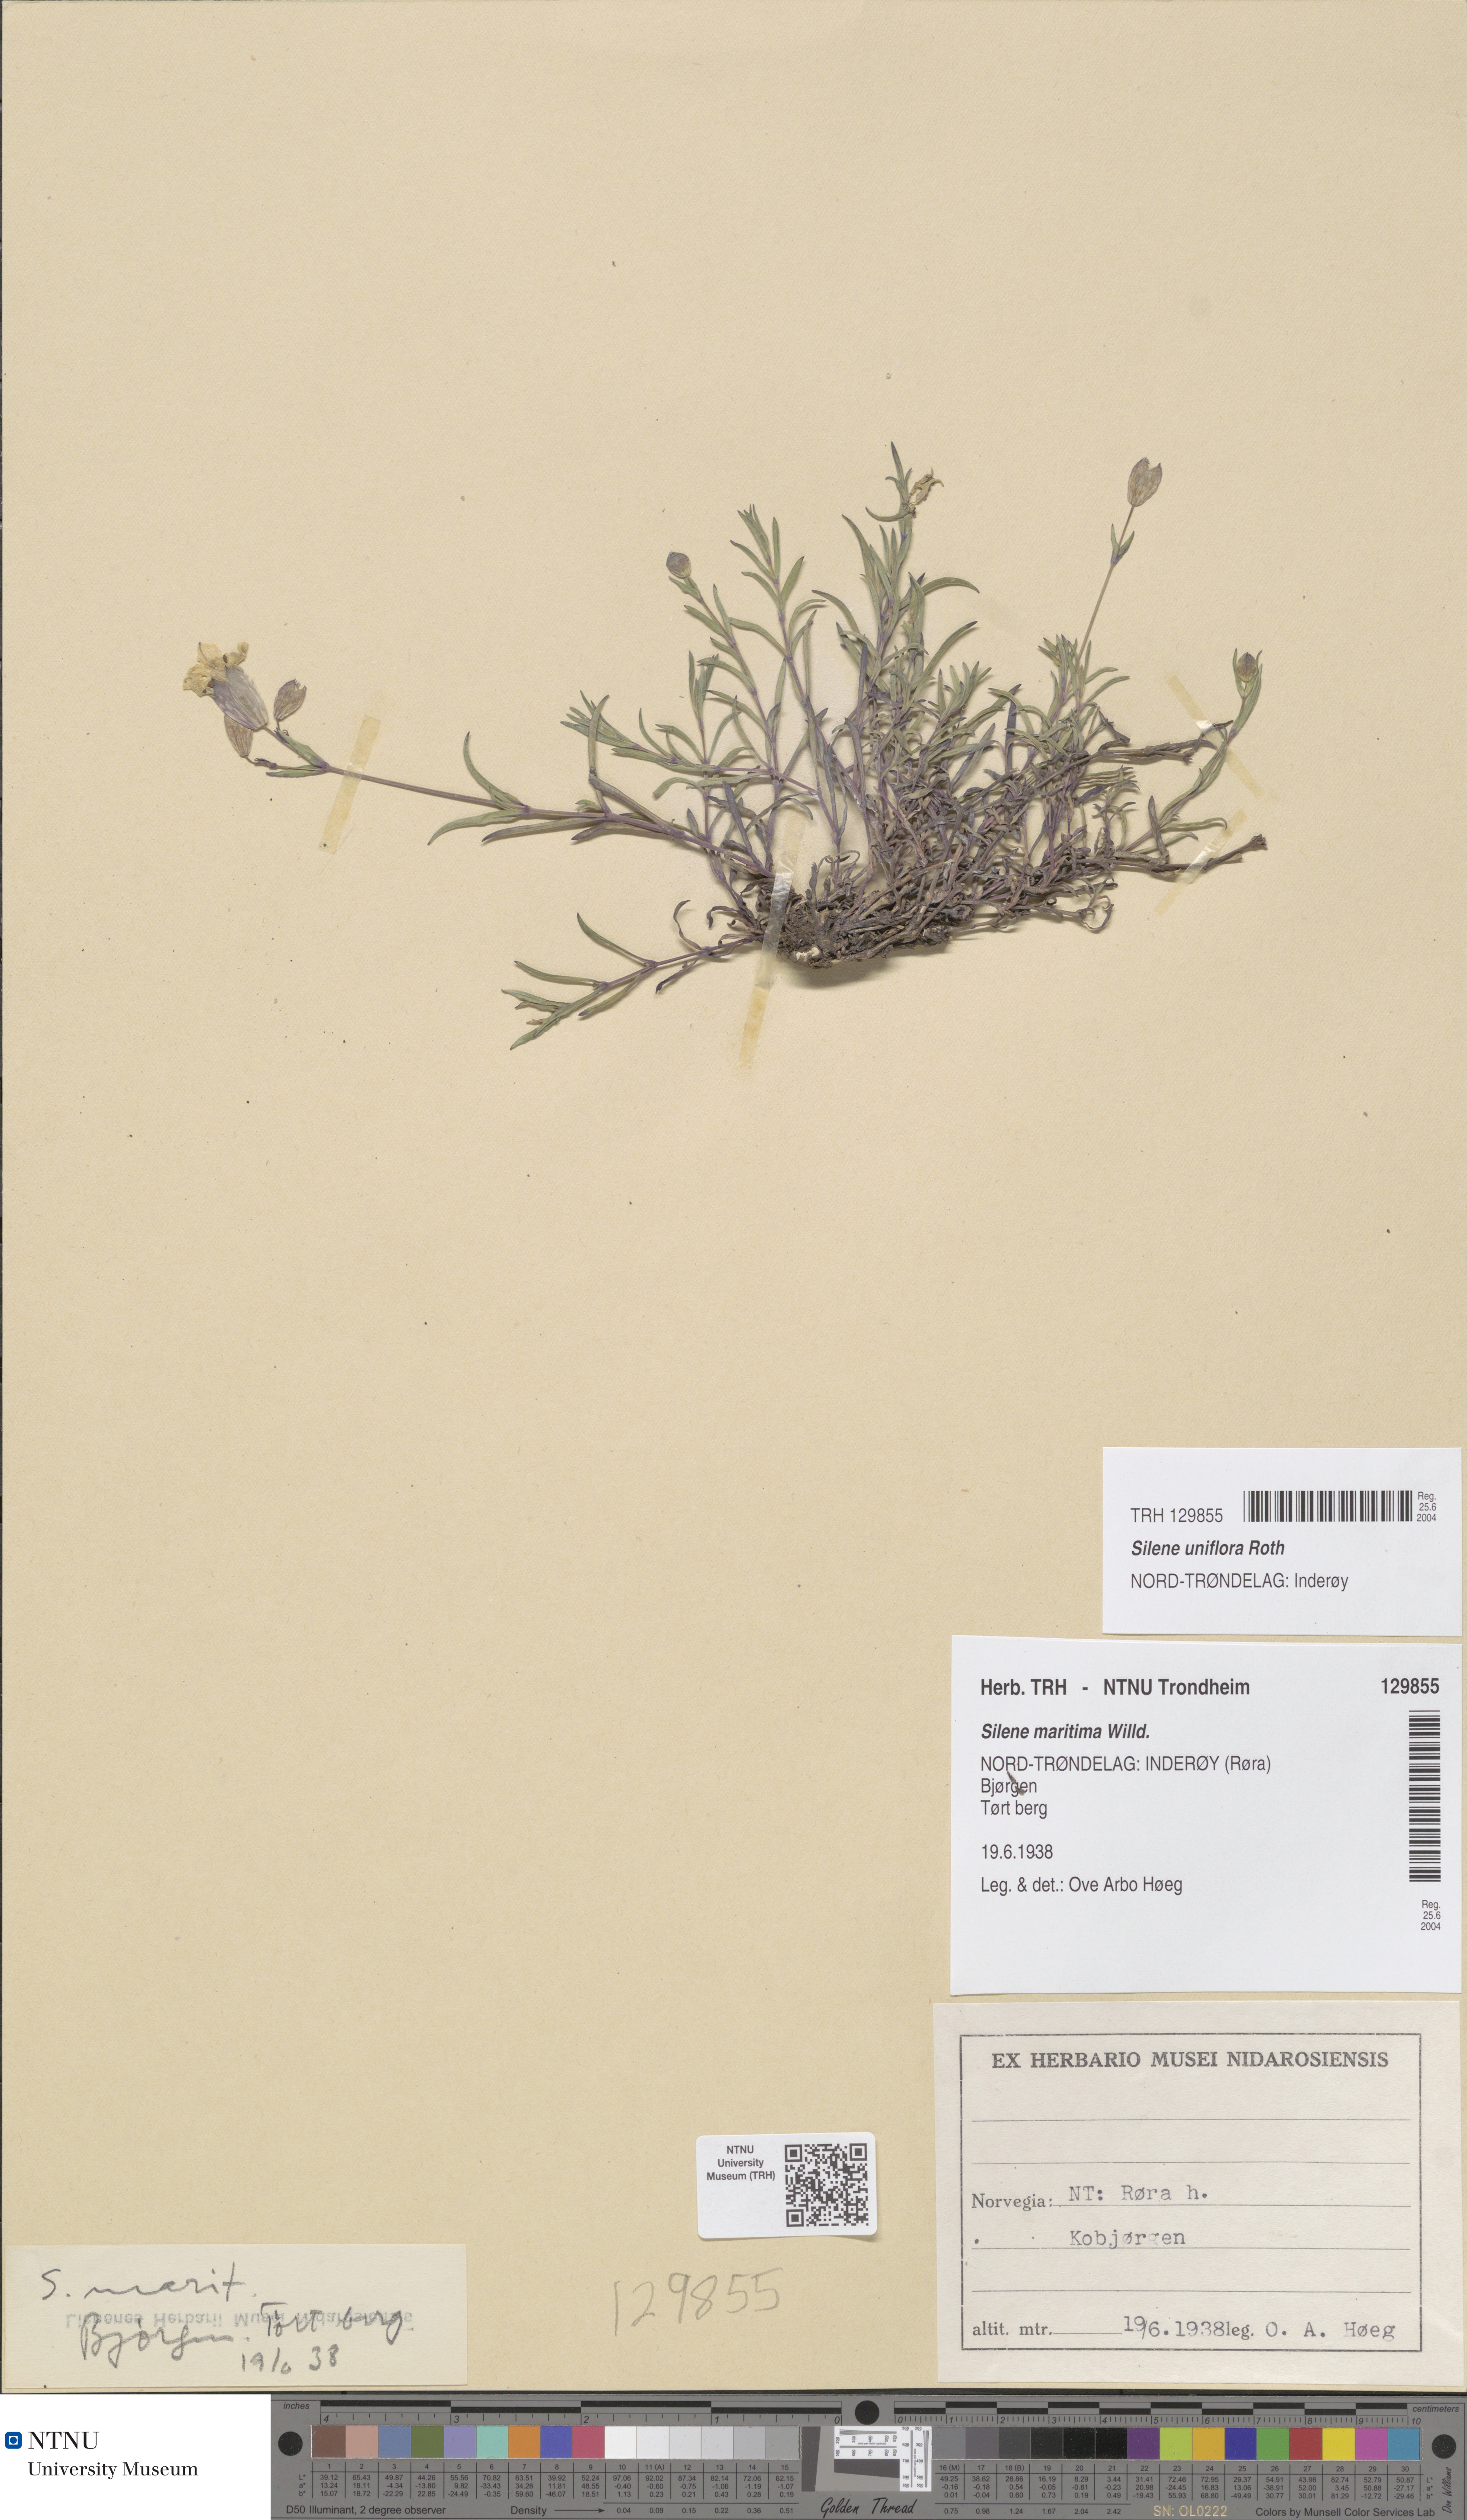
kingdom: Plantae
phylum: Tracheophyta
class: Magnoliopsida
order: Caryophyllales
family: Caryophyllaceae
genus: Silene
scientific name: Silene uniflora
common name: Sea campion
